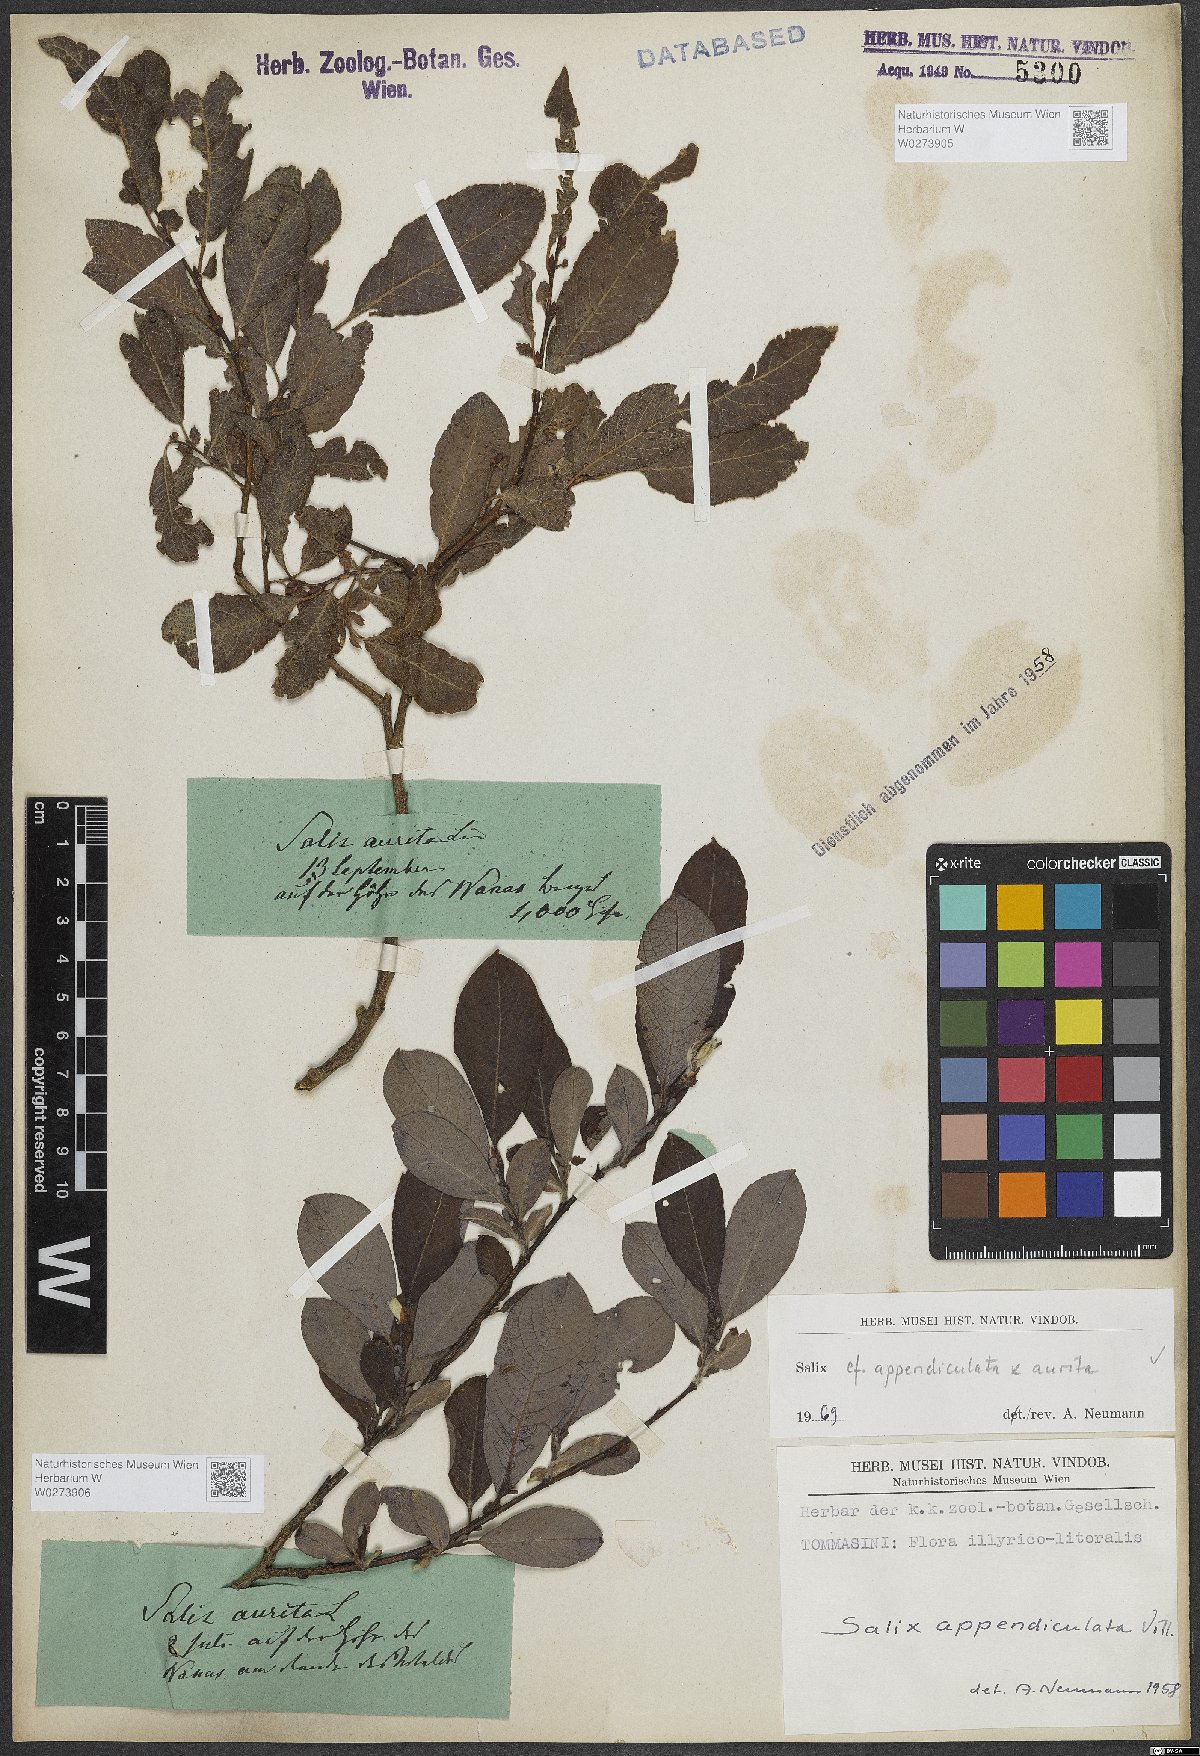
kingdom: Plantae
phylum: Tracheophyta
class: Magnoliopsida
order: Malpighiales
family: Salicaceae
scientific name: Salicaceae
